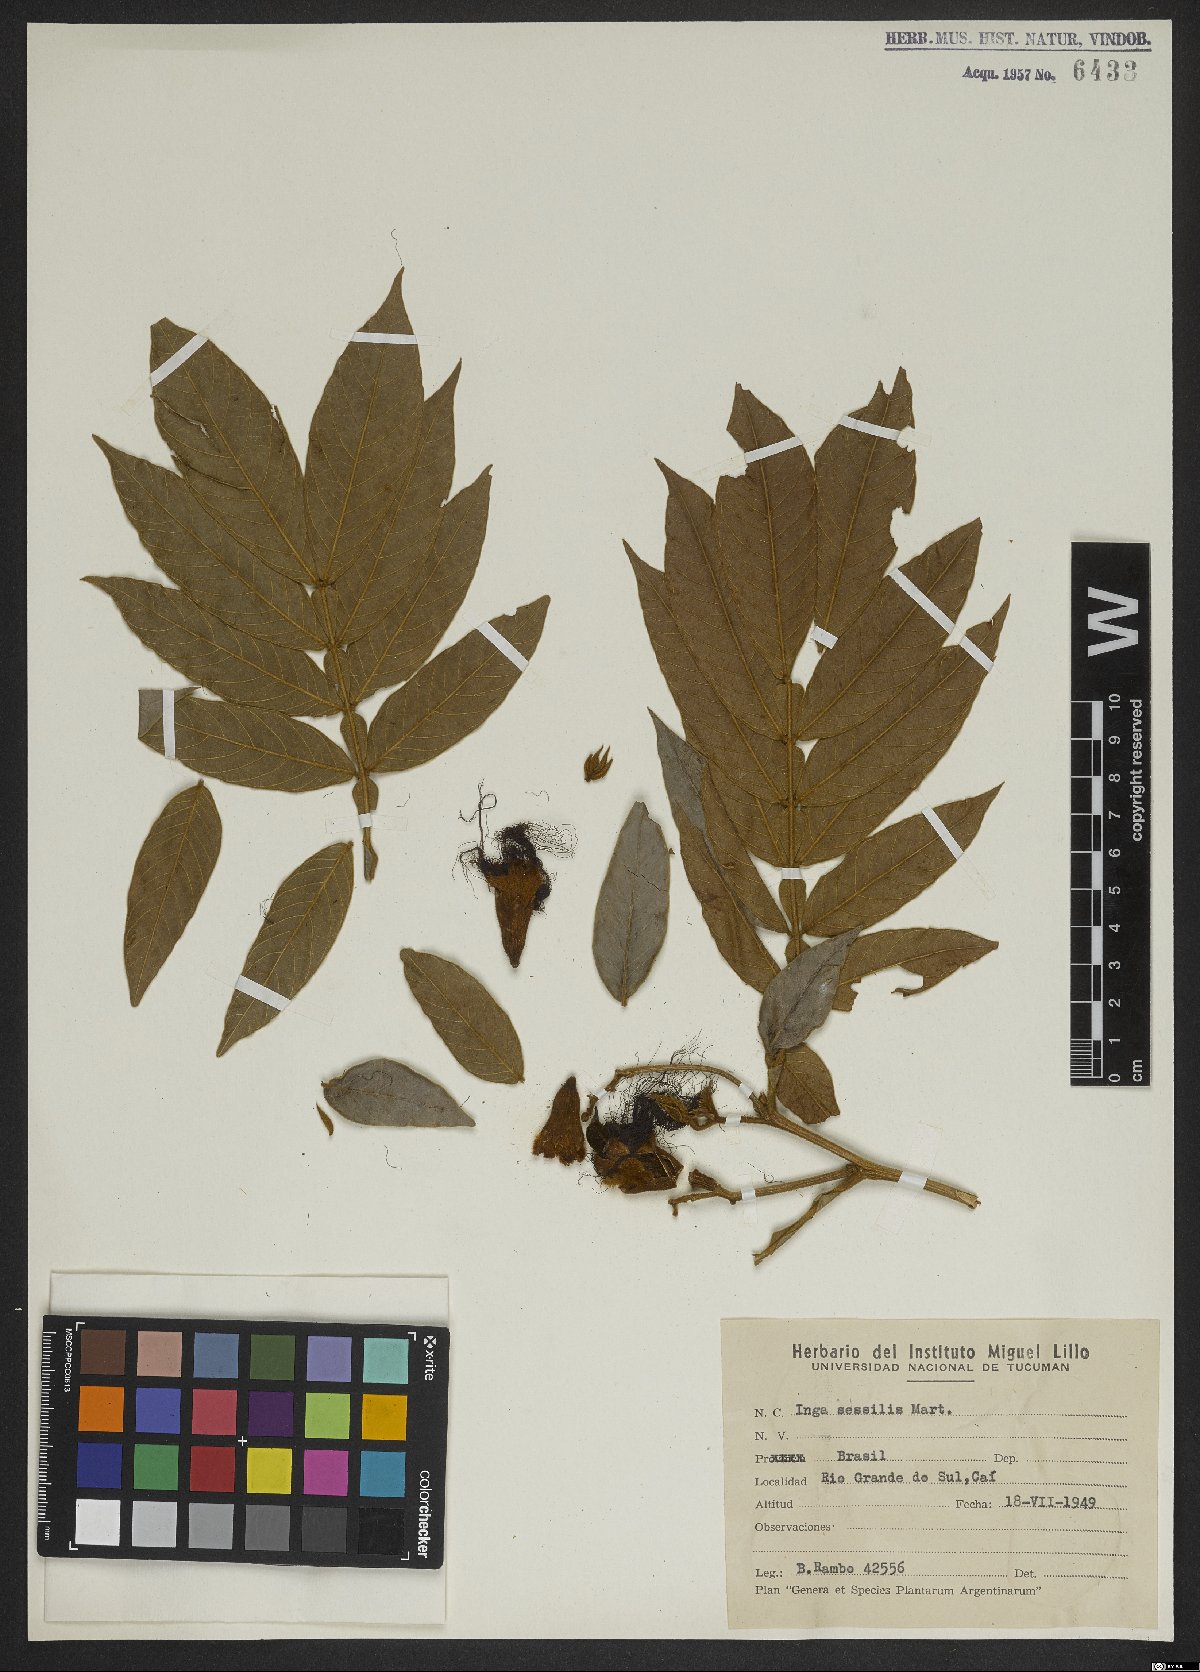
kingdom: Plantae
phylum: Tracheophyta
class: Magnoliopsida
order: Fabales
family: Fabaceae
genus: Inga
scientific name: Inga sessilis
